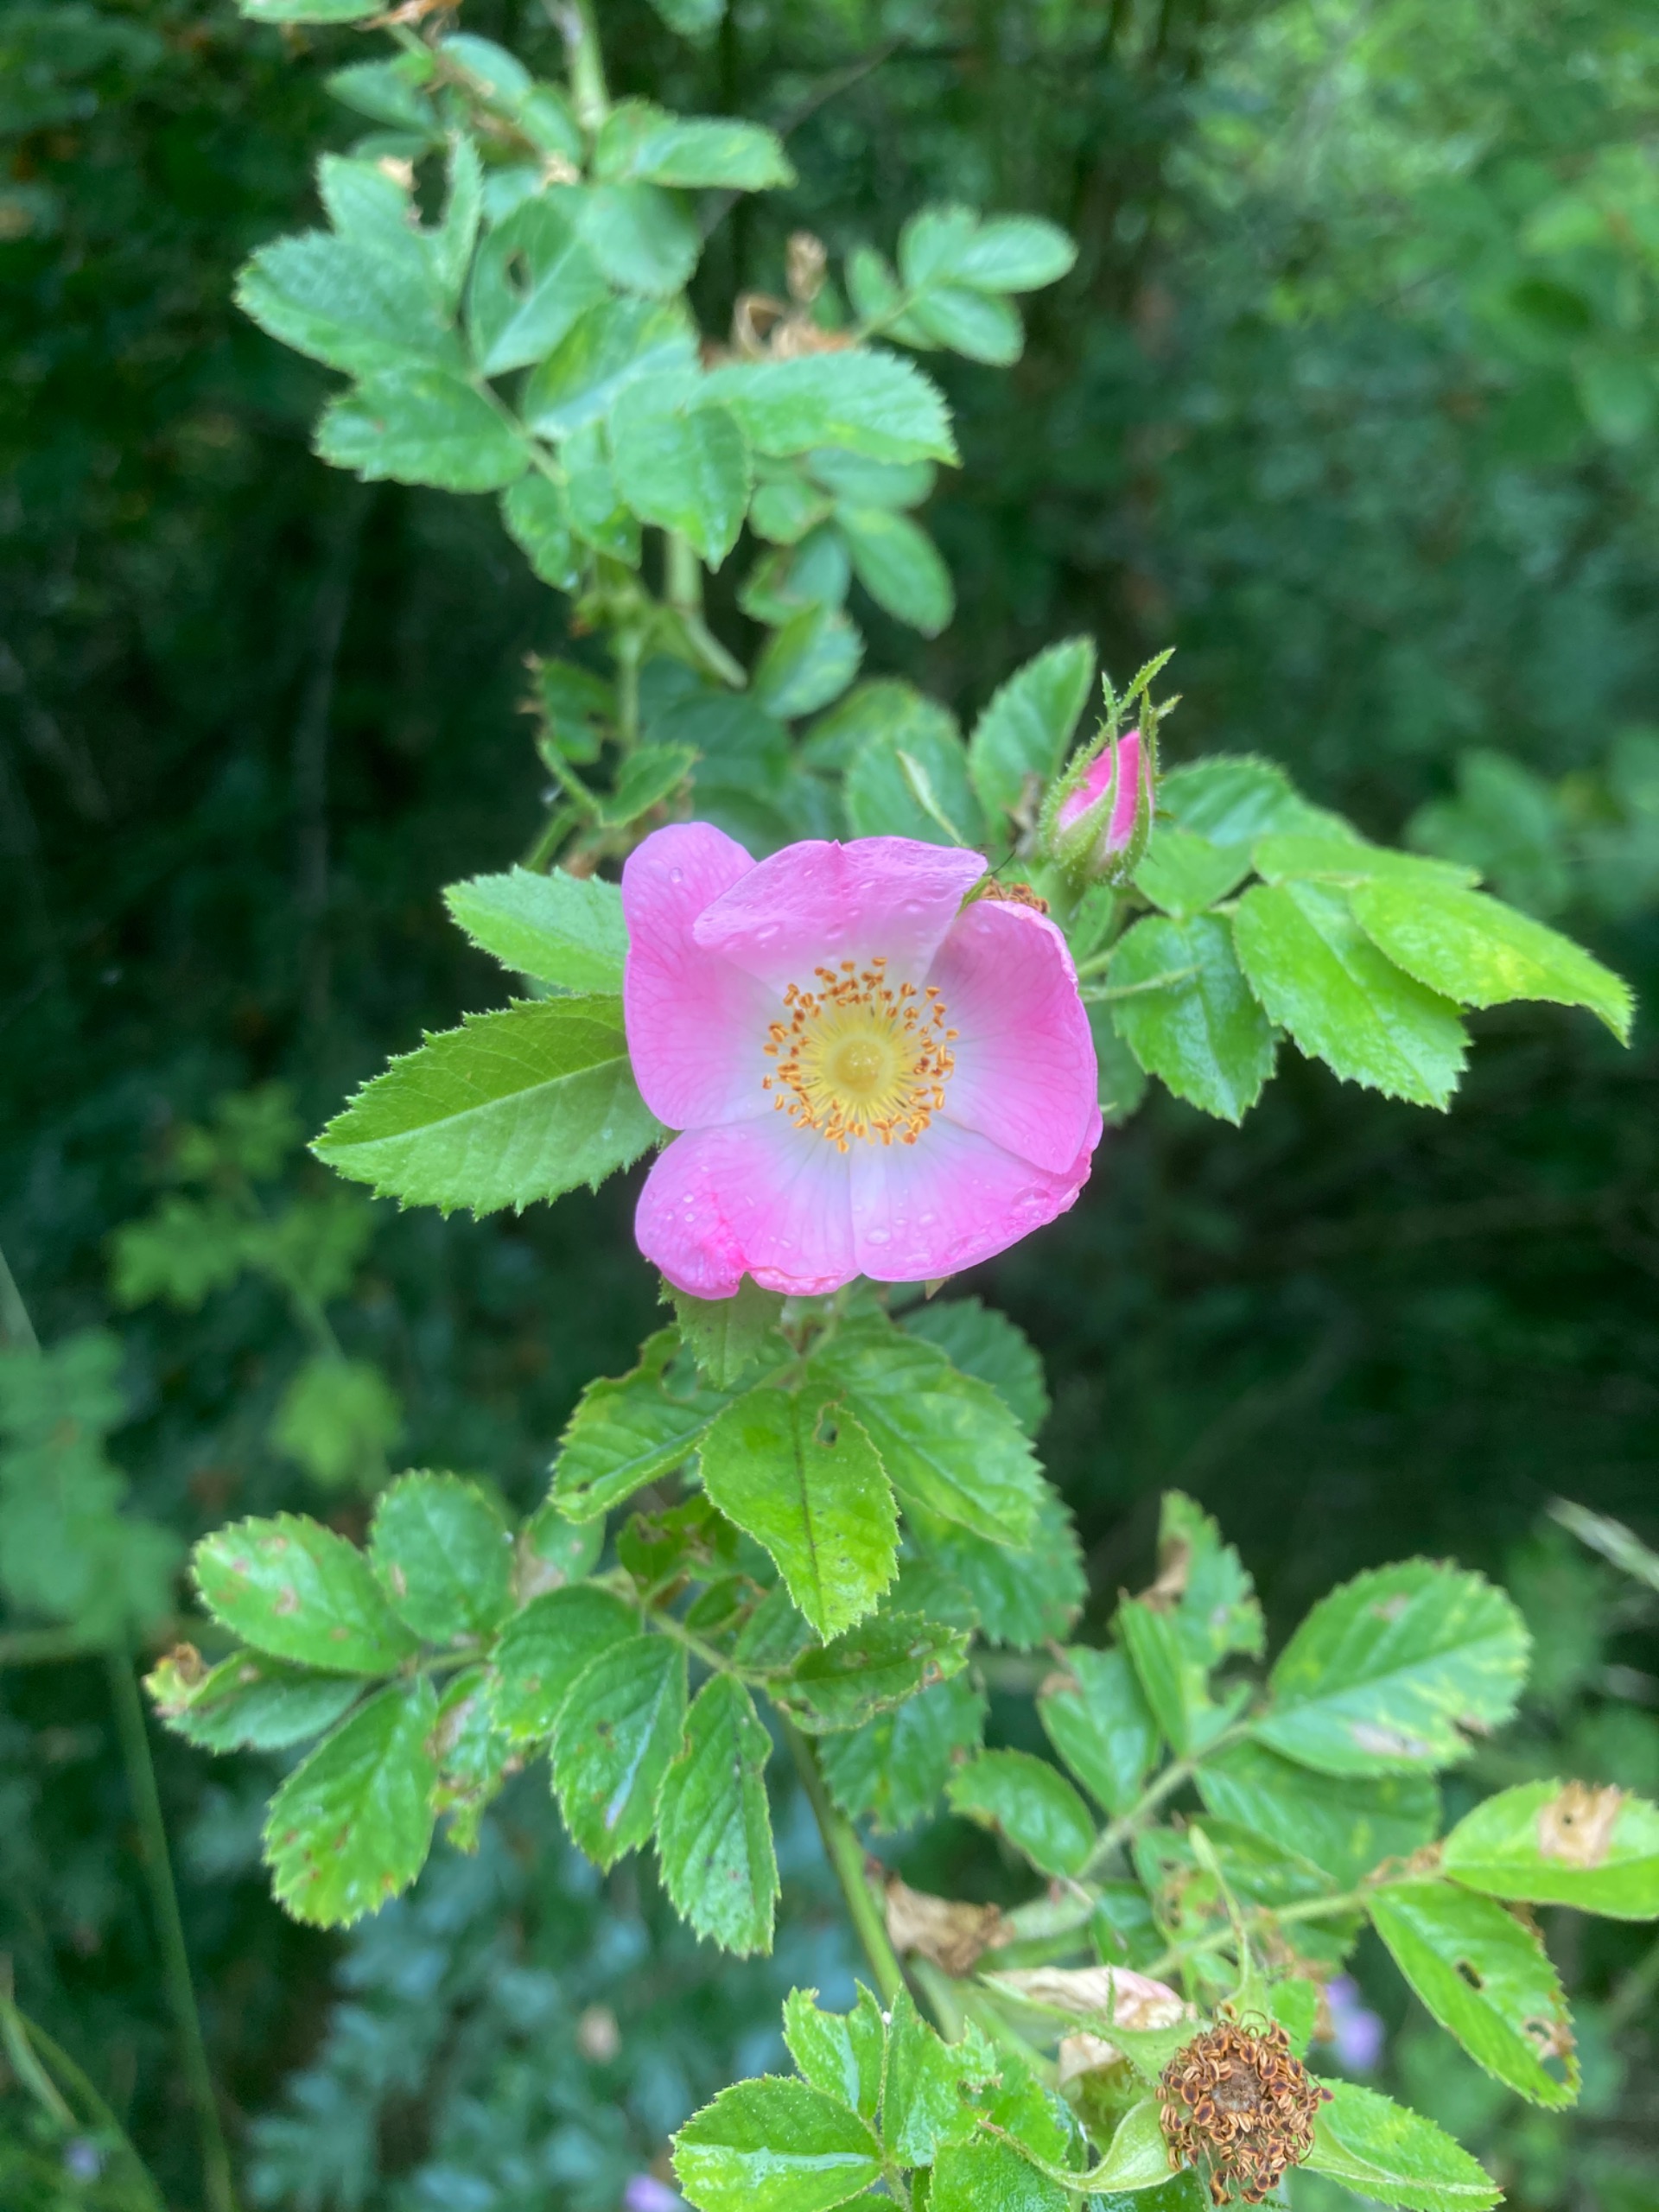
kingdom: Plantae
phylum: Tracheophyta
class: Magnoliopsida
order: Rosales
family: Rosaceae
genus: Rosa
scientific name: Rosa rubiginosa
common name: Æble-rose
